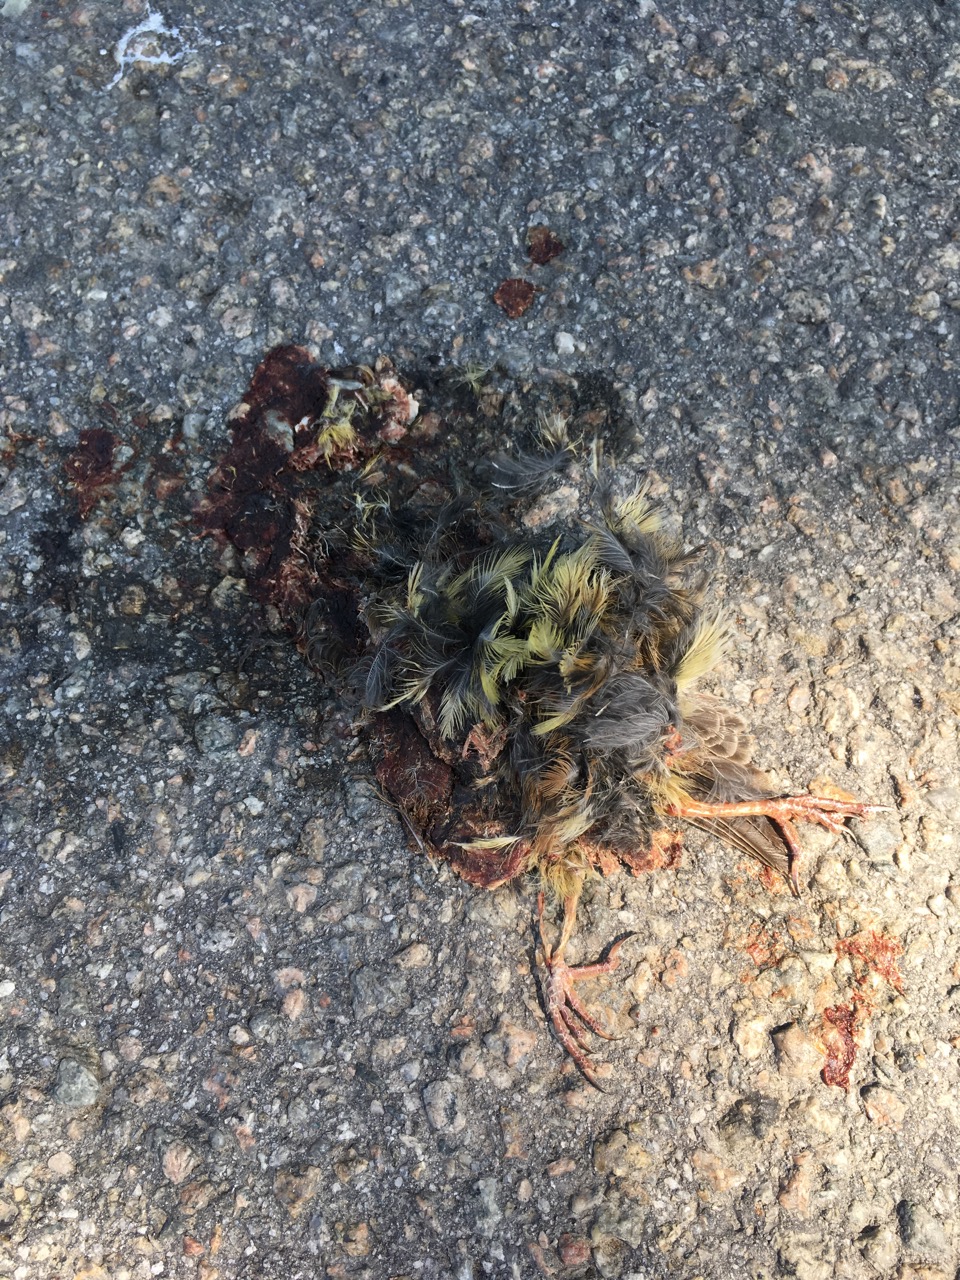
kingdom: Animalia
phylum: Chordata
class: Aves
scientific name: Aves
